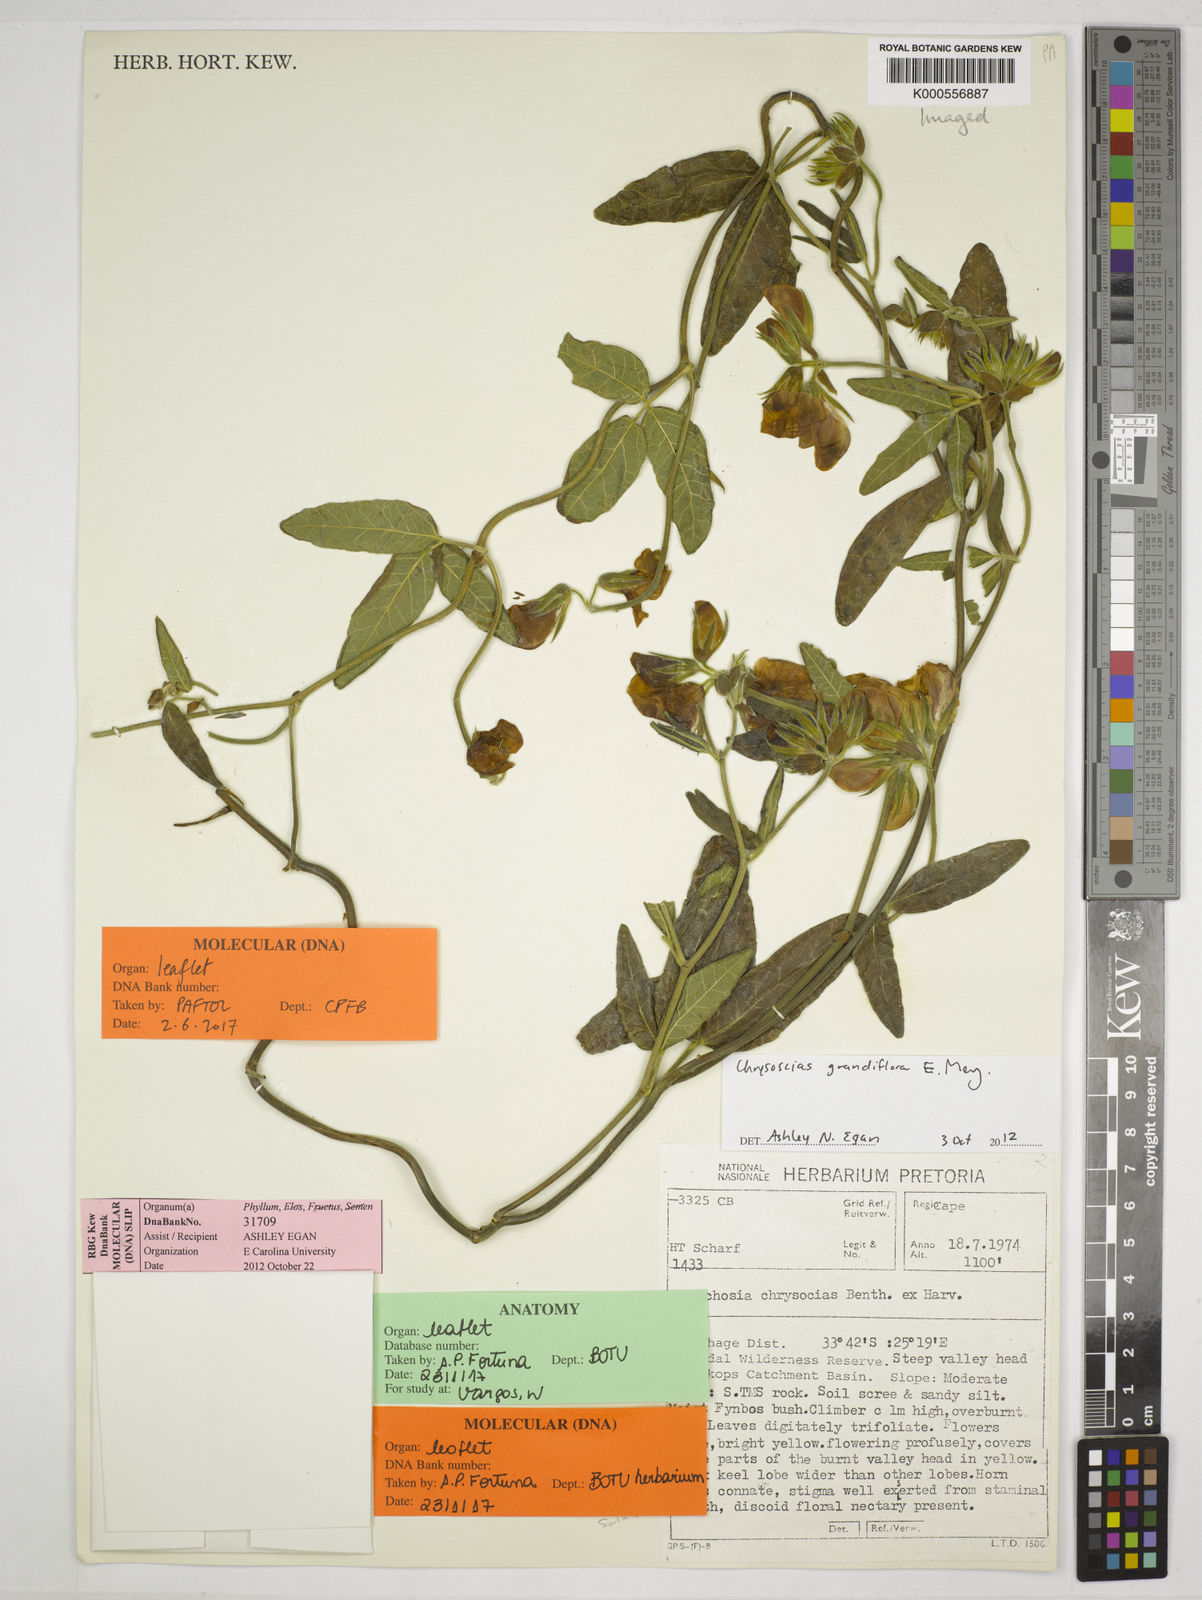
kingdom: Plantae
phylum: Tracheophyta
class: Magnoliopsida
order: Fabales
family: Fabaceae
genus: Rhynchosia
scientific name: Rhynchosia chrysoscias
